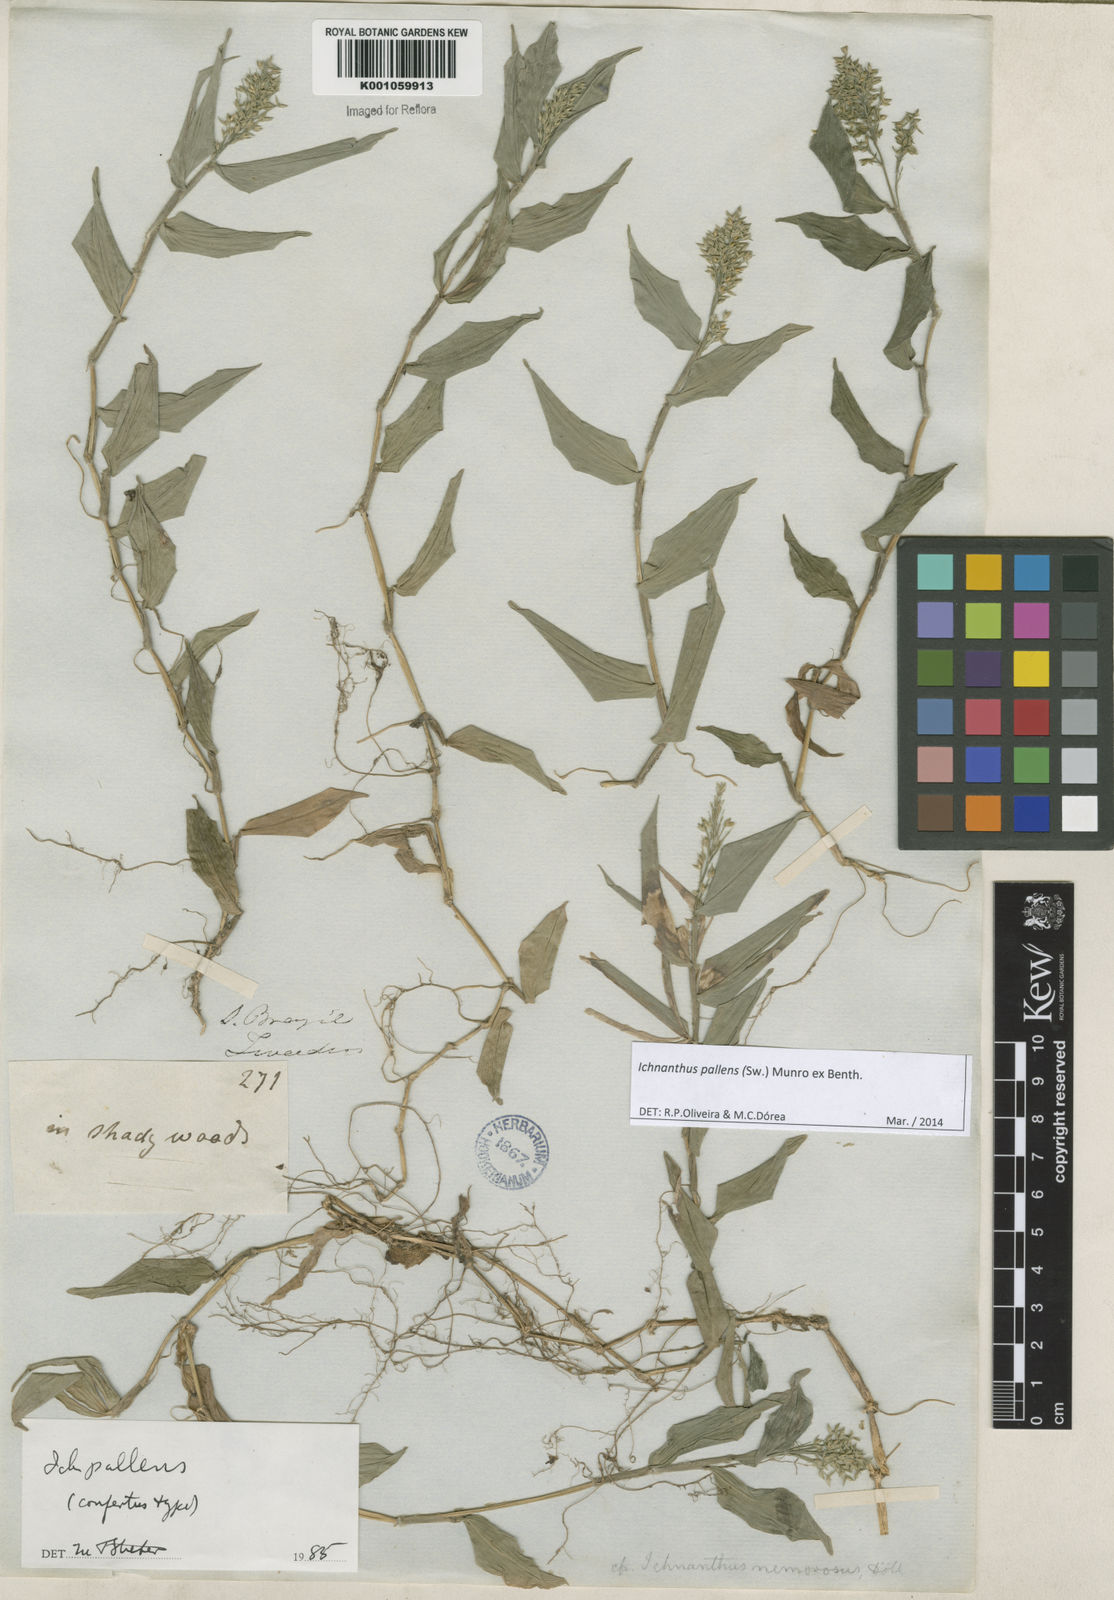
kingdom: Plantae
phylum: Tracheophyta
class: Liliopsida
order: Poales
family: Poaceae
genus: Ichnanthus
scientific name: Ichnanthus pallens
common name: Water grass
